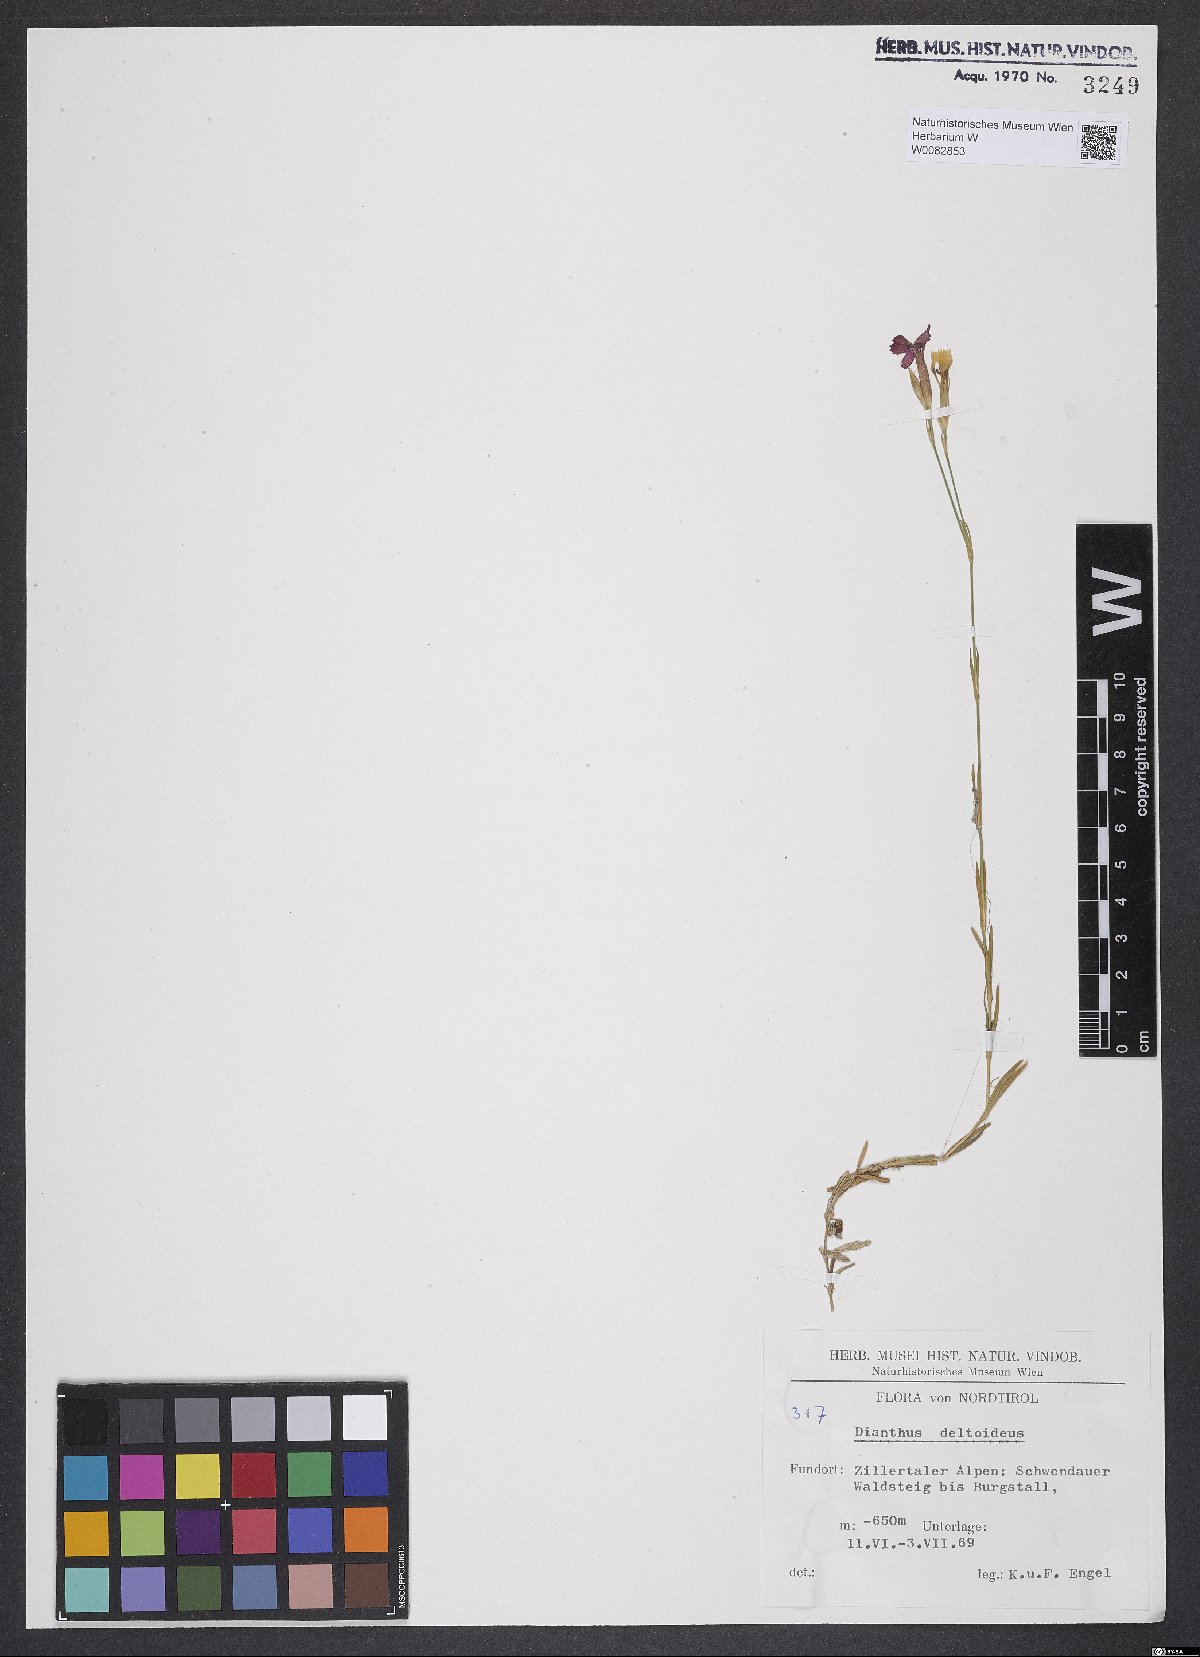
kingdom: Plantae
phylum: Tracheophyta
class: Magnoliopsida
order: Caryophyllales
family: Caryophyllaceae
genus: Dianthus
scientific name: Dianthus deltoides
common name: Maiden pink
